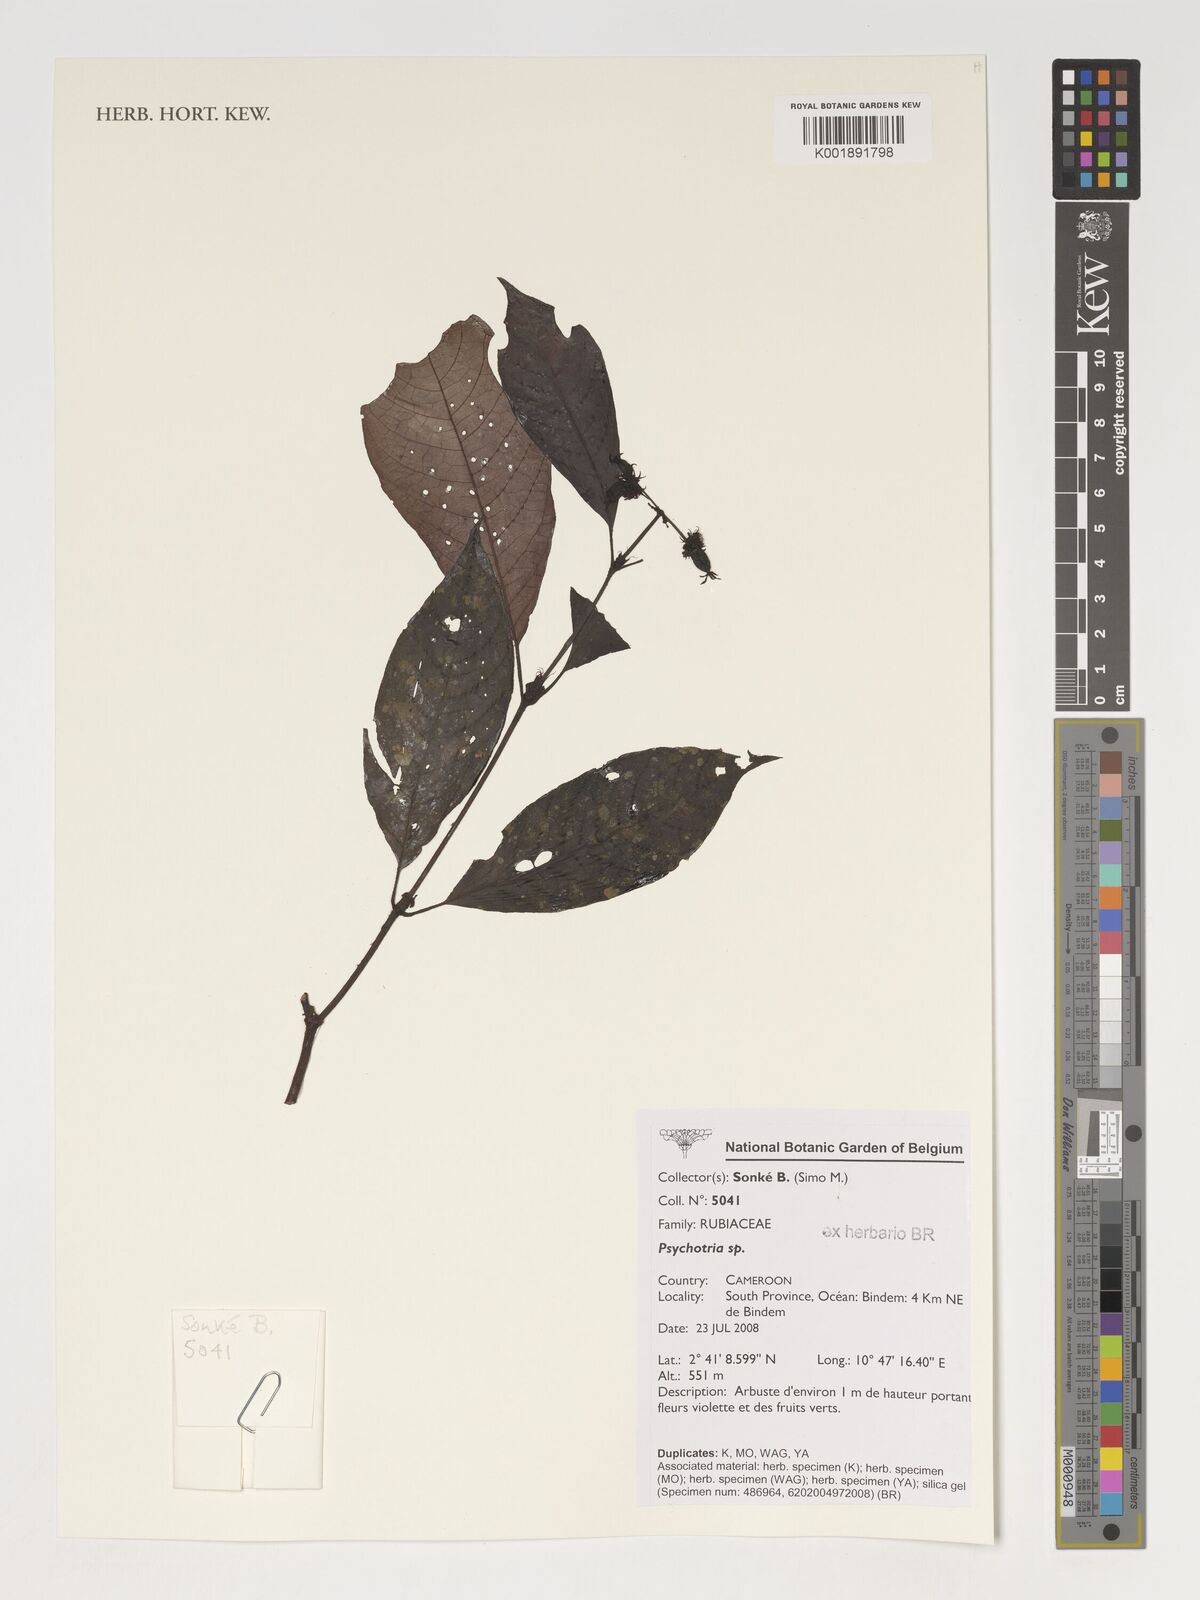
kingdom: Plantae
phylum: Tracheophyta
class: Magnoliopsida
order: Gentianales
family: Rubiaceae
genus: Psychotria
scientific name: Psychotria
